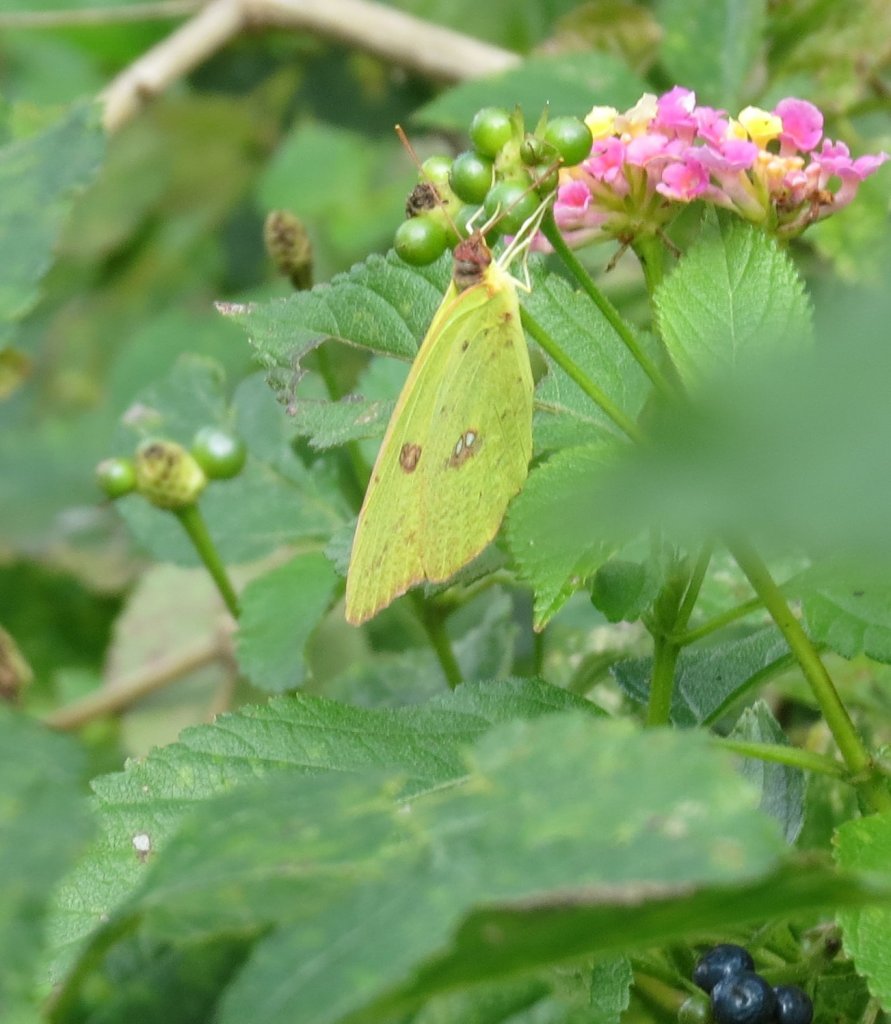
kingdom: Animalia
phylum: Arthropoda
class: Insecta
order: Lepidoptera
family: Pieridae
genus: Phoebis
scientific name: Phoebis sennae
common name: Cloudless Sulphur
